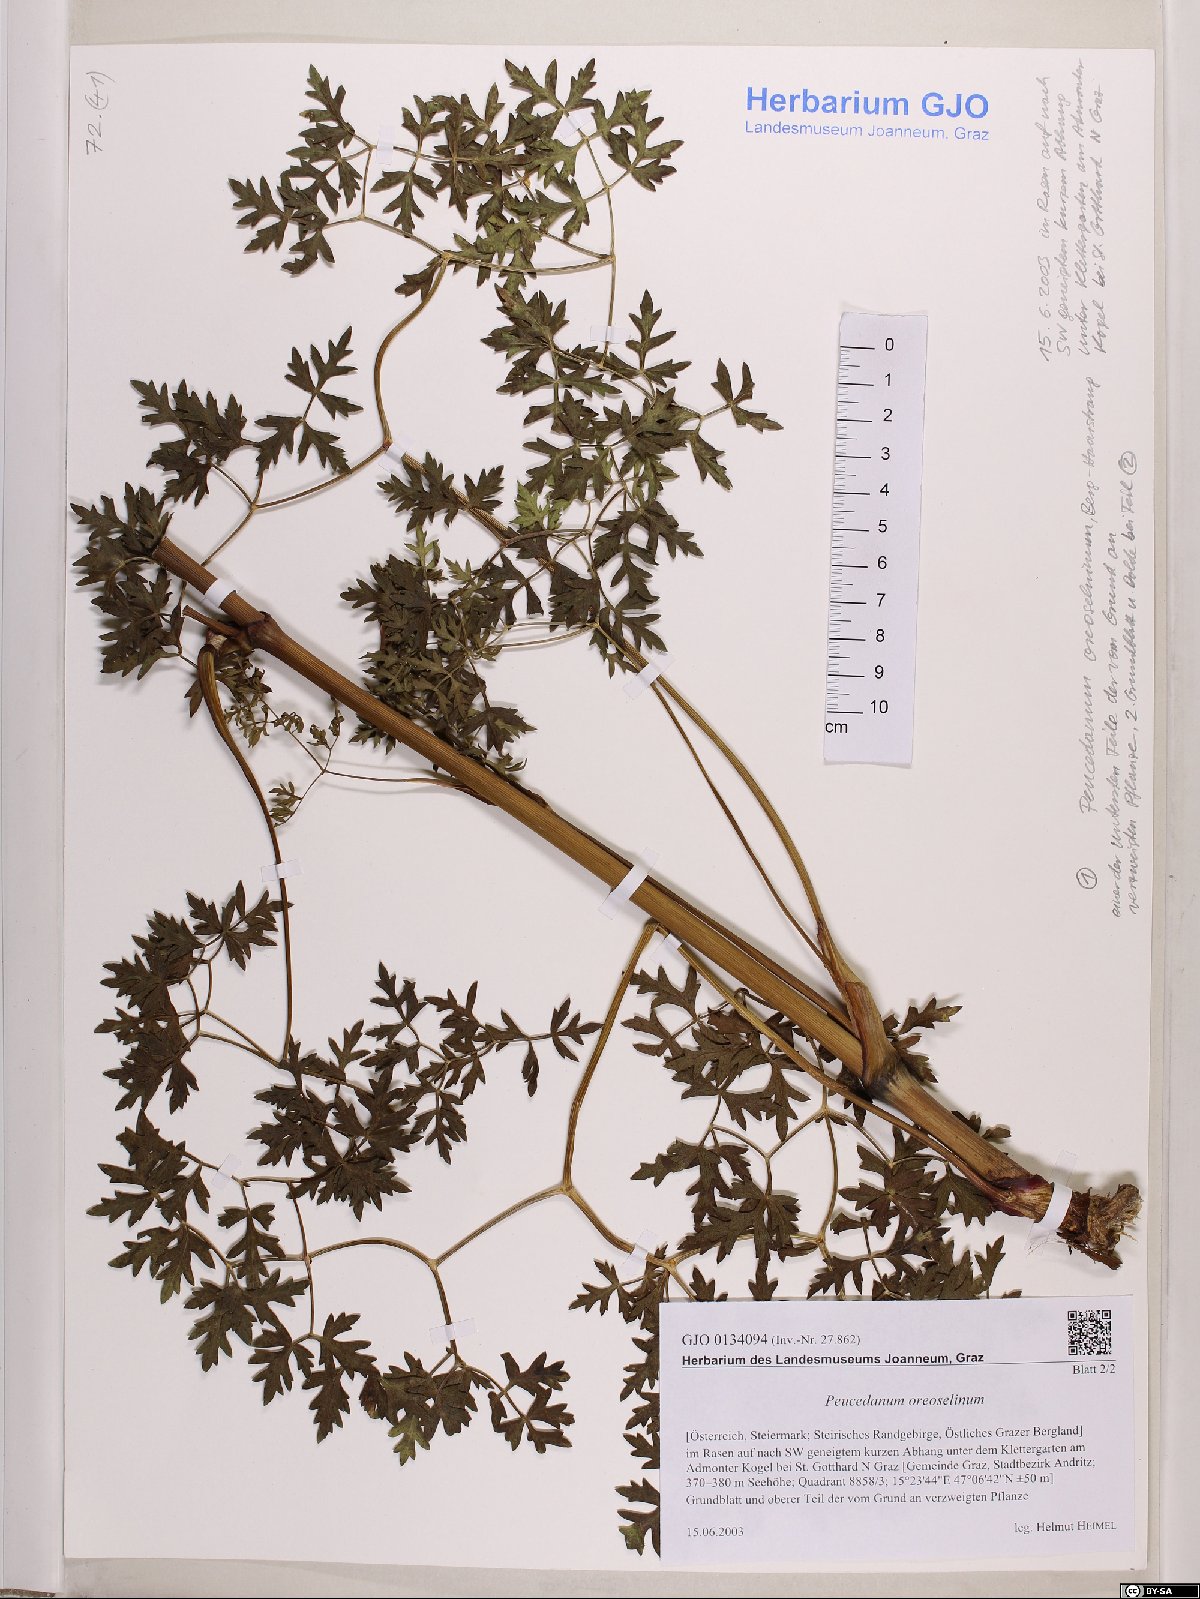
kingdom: Plantae
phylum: Tracheophyta
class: Magnoliopsida
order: Apiales
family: Apiaceae
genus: Oreoselinum
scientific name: Oreoselinum nigrum
